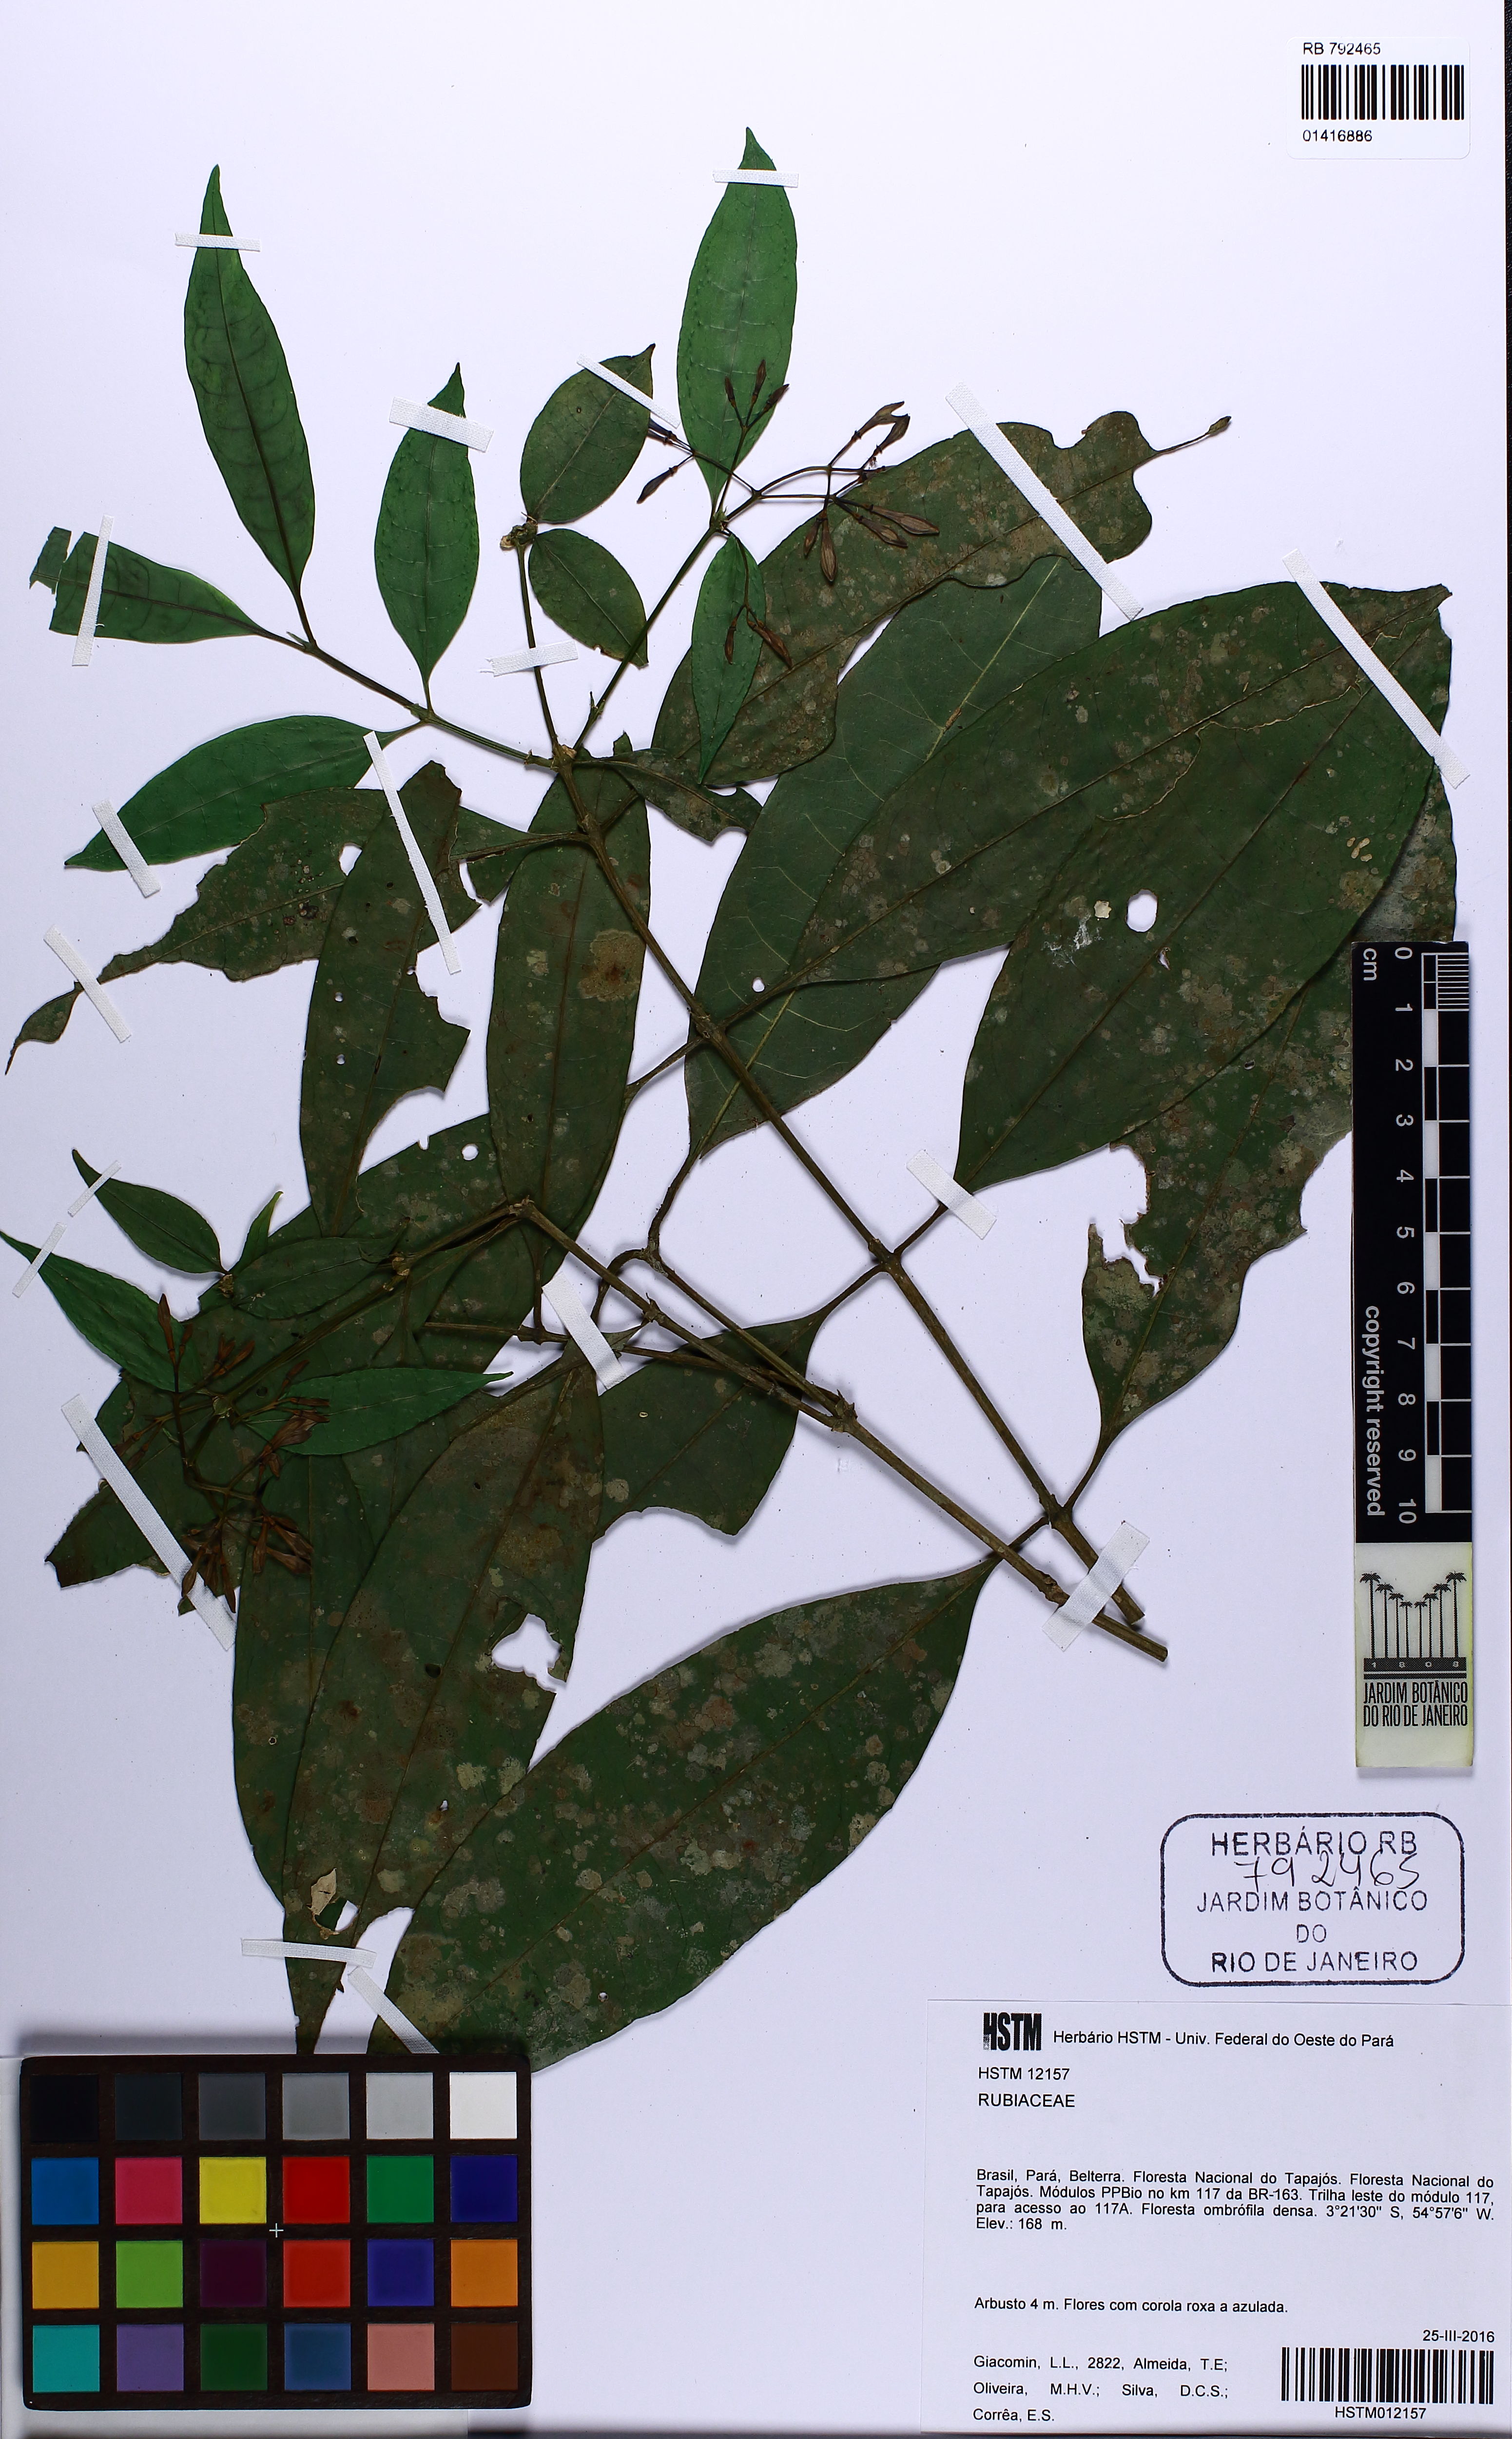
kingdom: Plantae
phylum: Tracheophyta
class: Magnoliopsida
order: Gentianales
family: Rubiaceae
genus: Faramea
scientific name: Faramea multiflora
